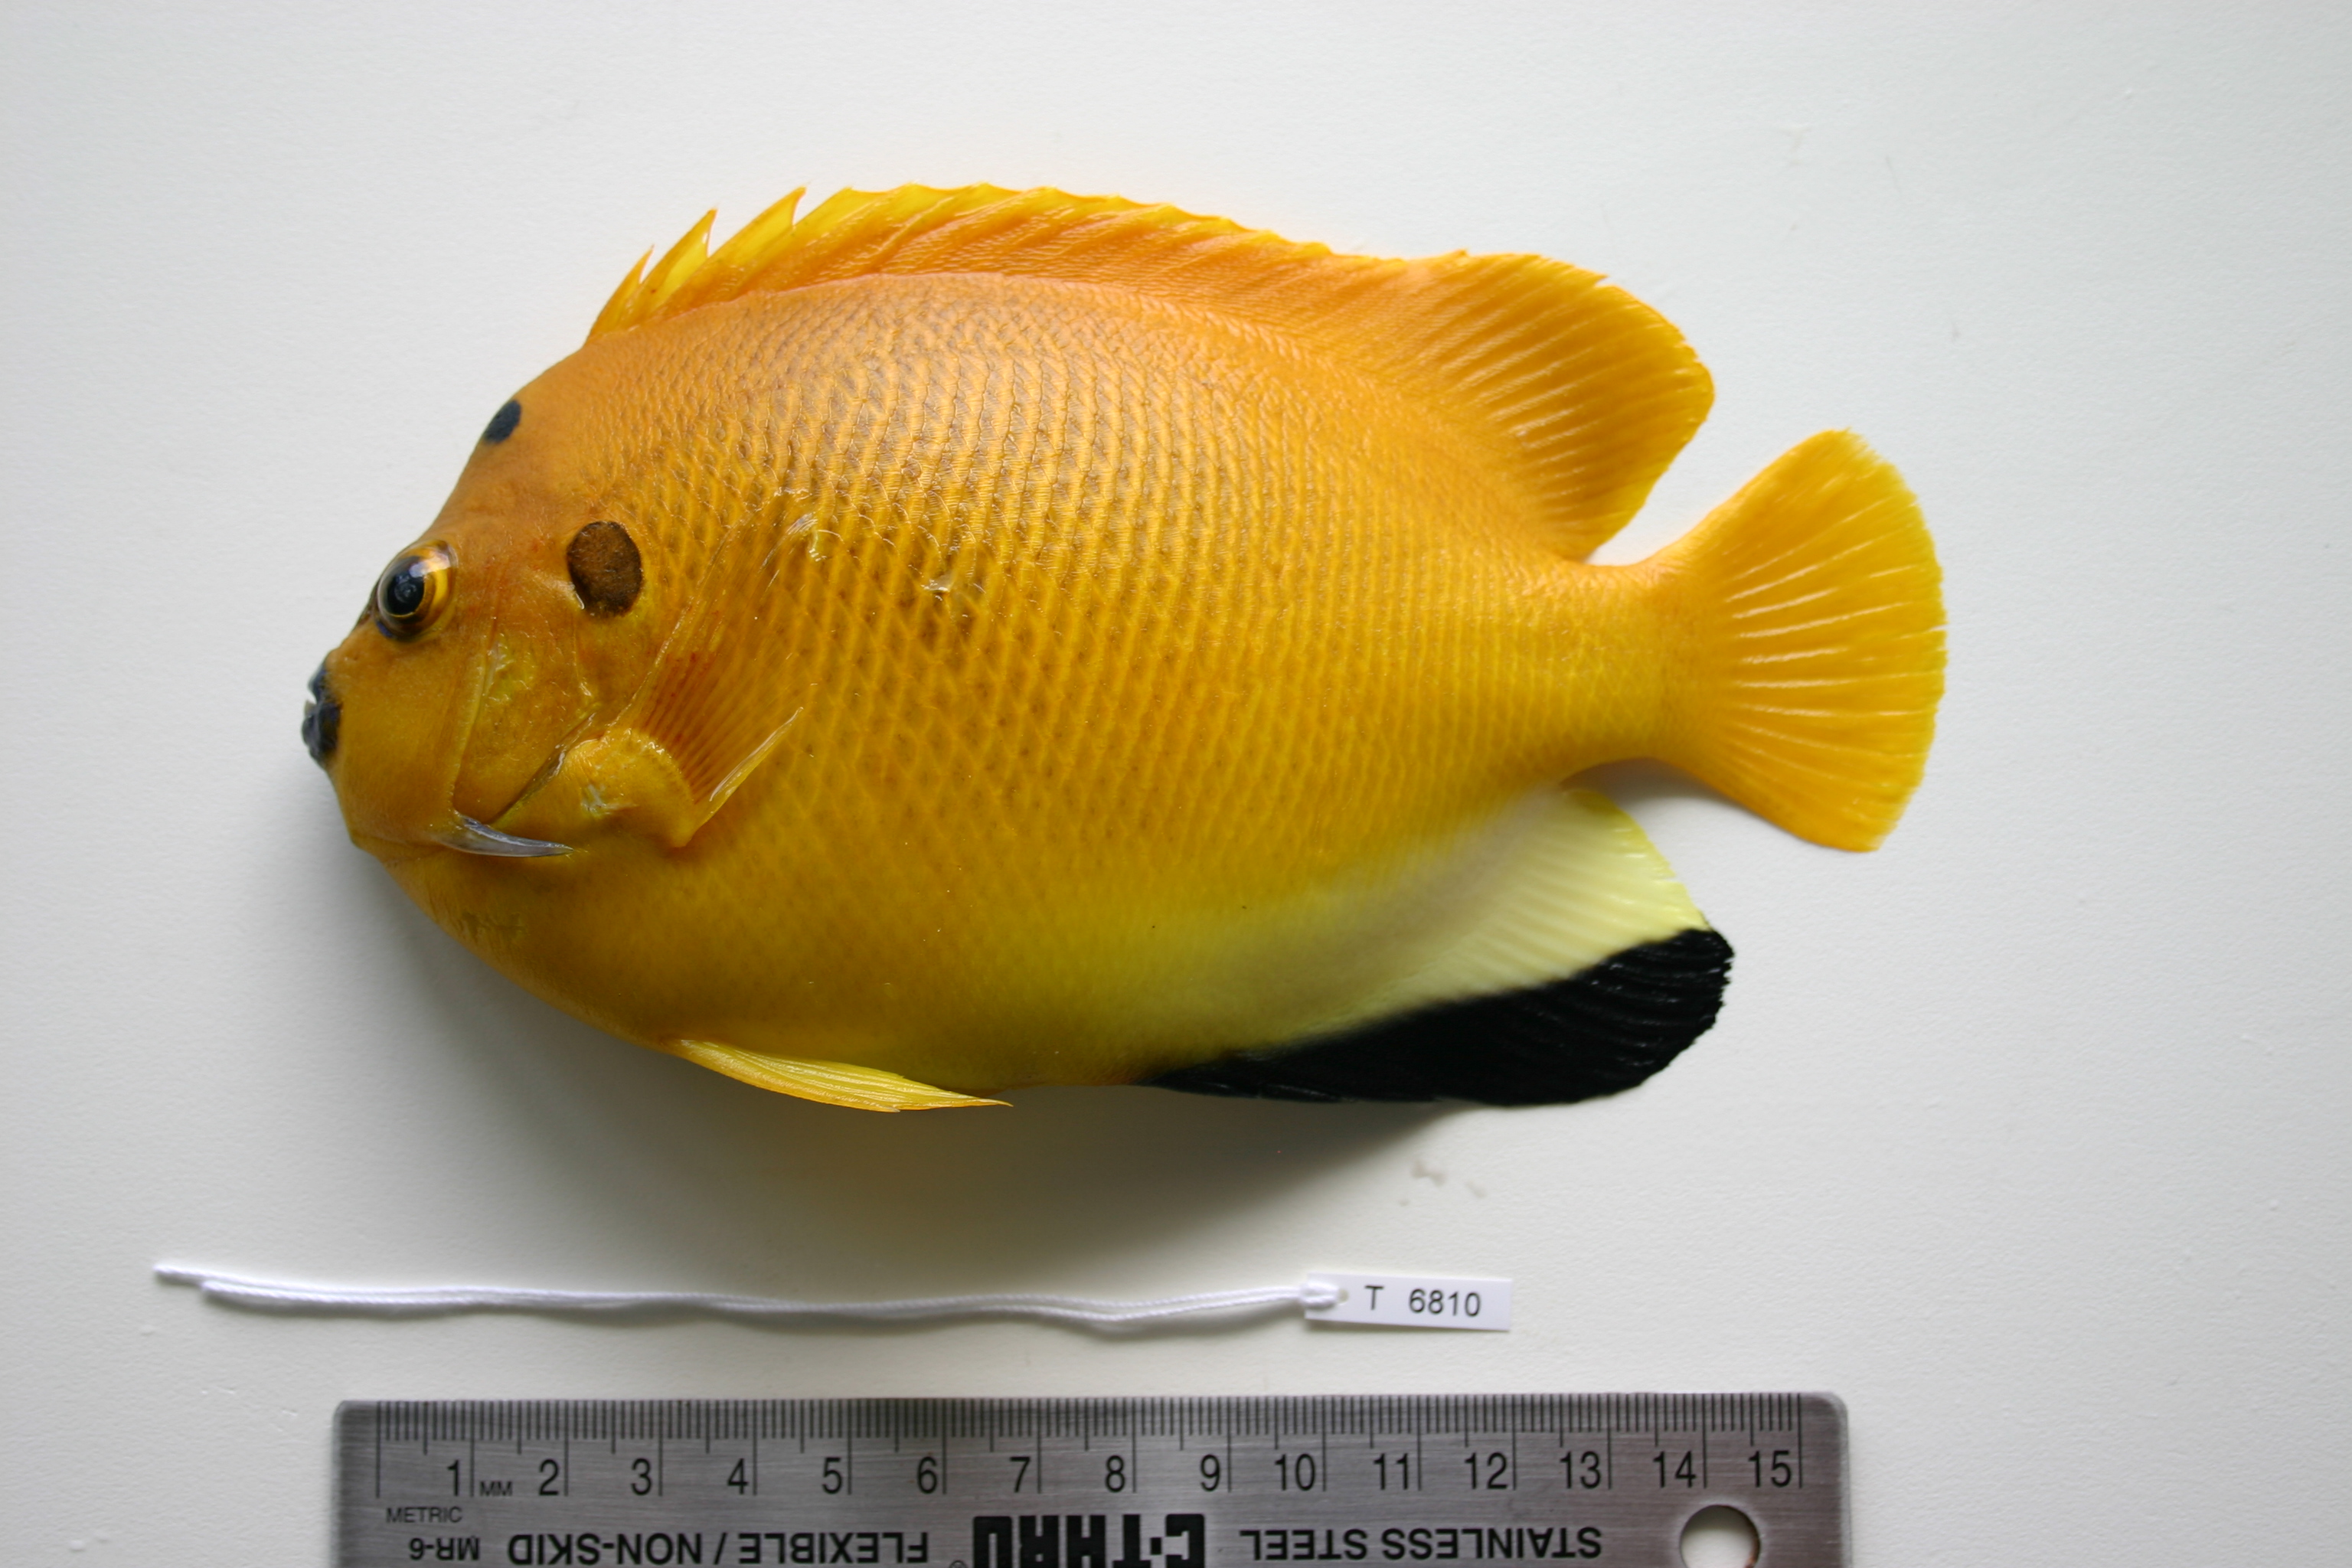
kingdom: Animalia
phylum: Chordata
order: Perciformes
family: Pomacanthidae
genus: Apolemichthys
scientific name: Apolemichthys trimaculatus
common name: Threespot angelfish
